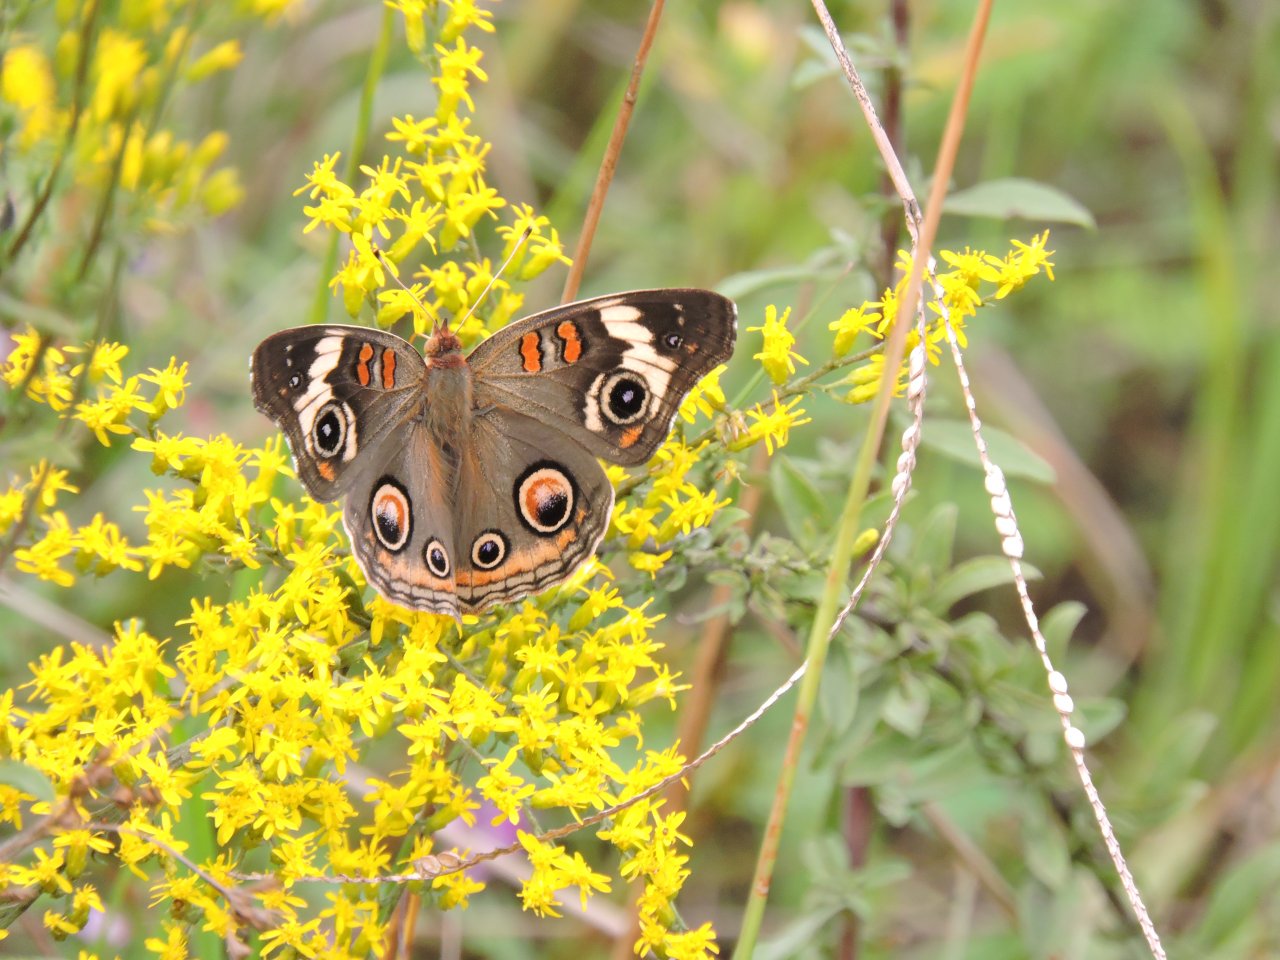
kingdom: Animalia
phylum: Arthropoda
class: Insecta
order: Lepidoptera
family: Nymphalidae
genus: Junonia
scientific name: Junonia coenia
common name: Common Buckeye
